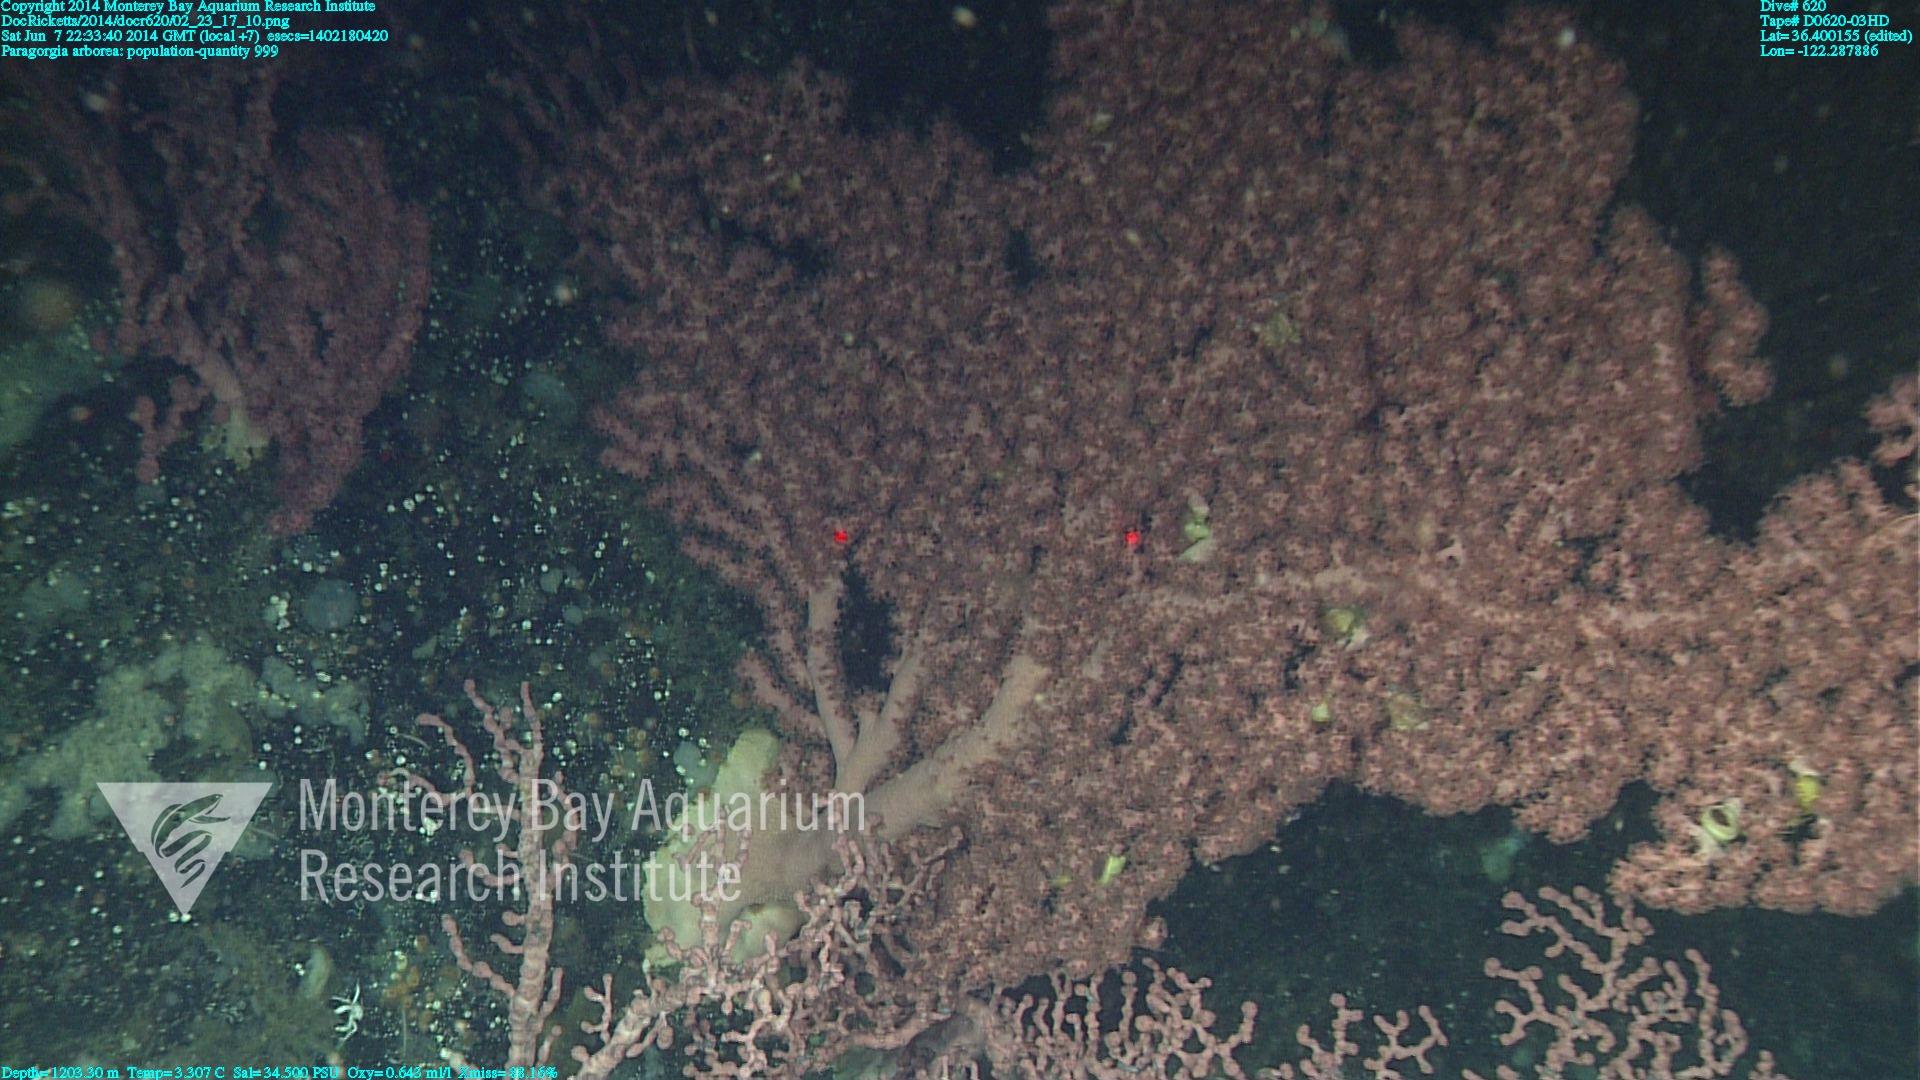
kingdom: Animalia
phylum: Cnidaria
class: Anthozoa
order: Scleralcyonacea
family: Coralliidae
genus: Paragorgia
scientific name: Paragorgia arborea
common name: Bubble gum coral
